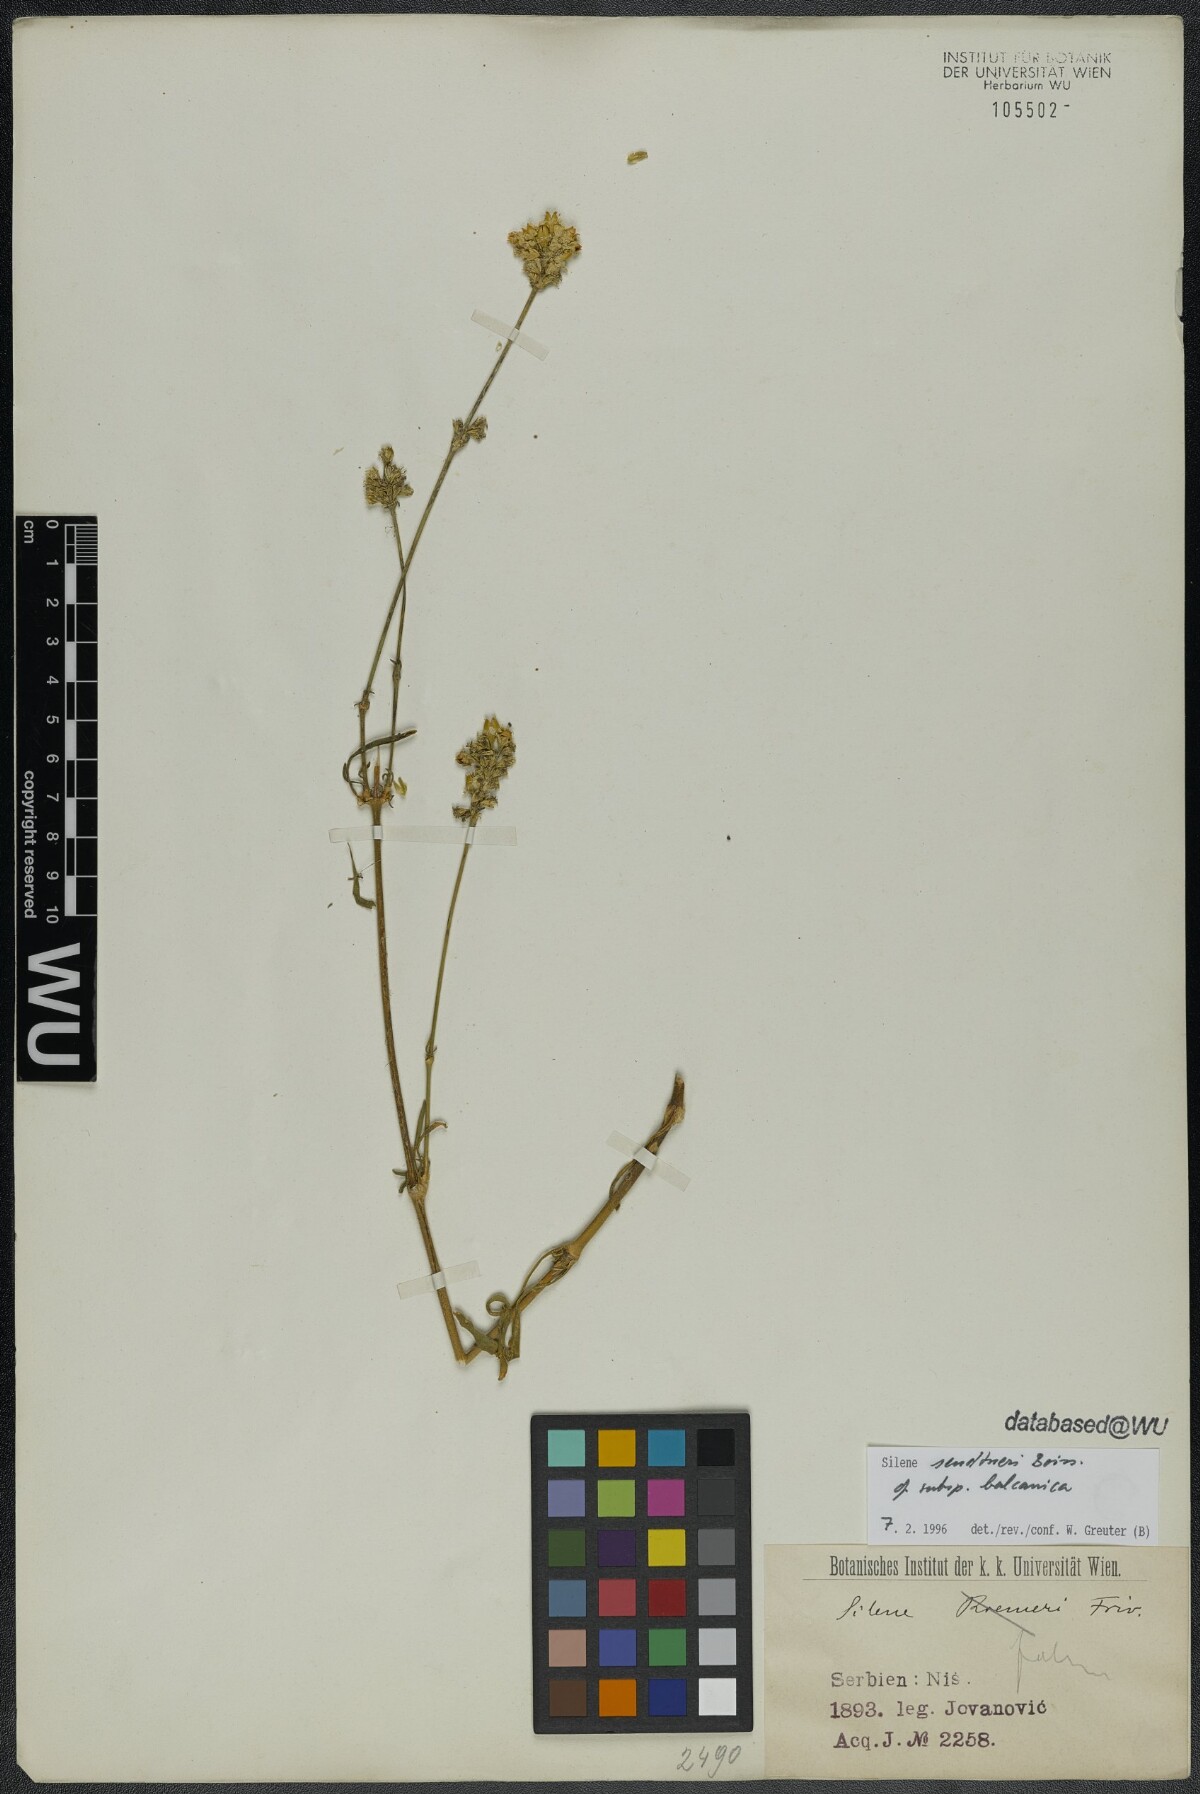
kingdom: Plantae
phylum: Tracheophyta
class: Magnoliopsida
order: Caryophyllales
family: Caryophyllaceae
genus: Silene
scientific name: Silene sendtneri
